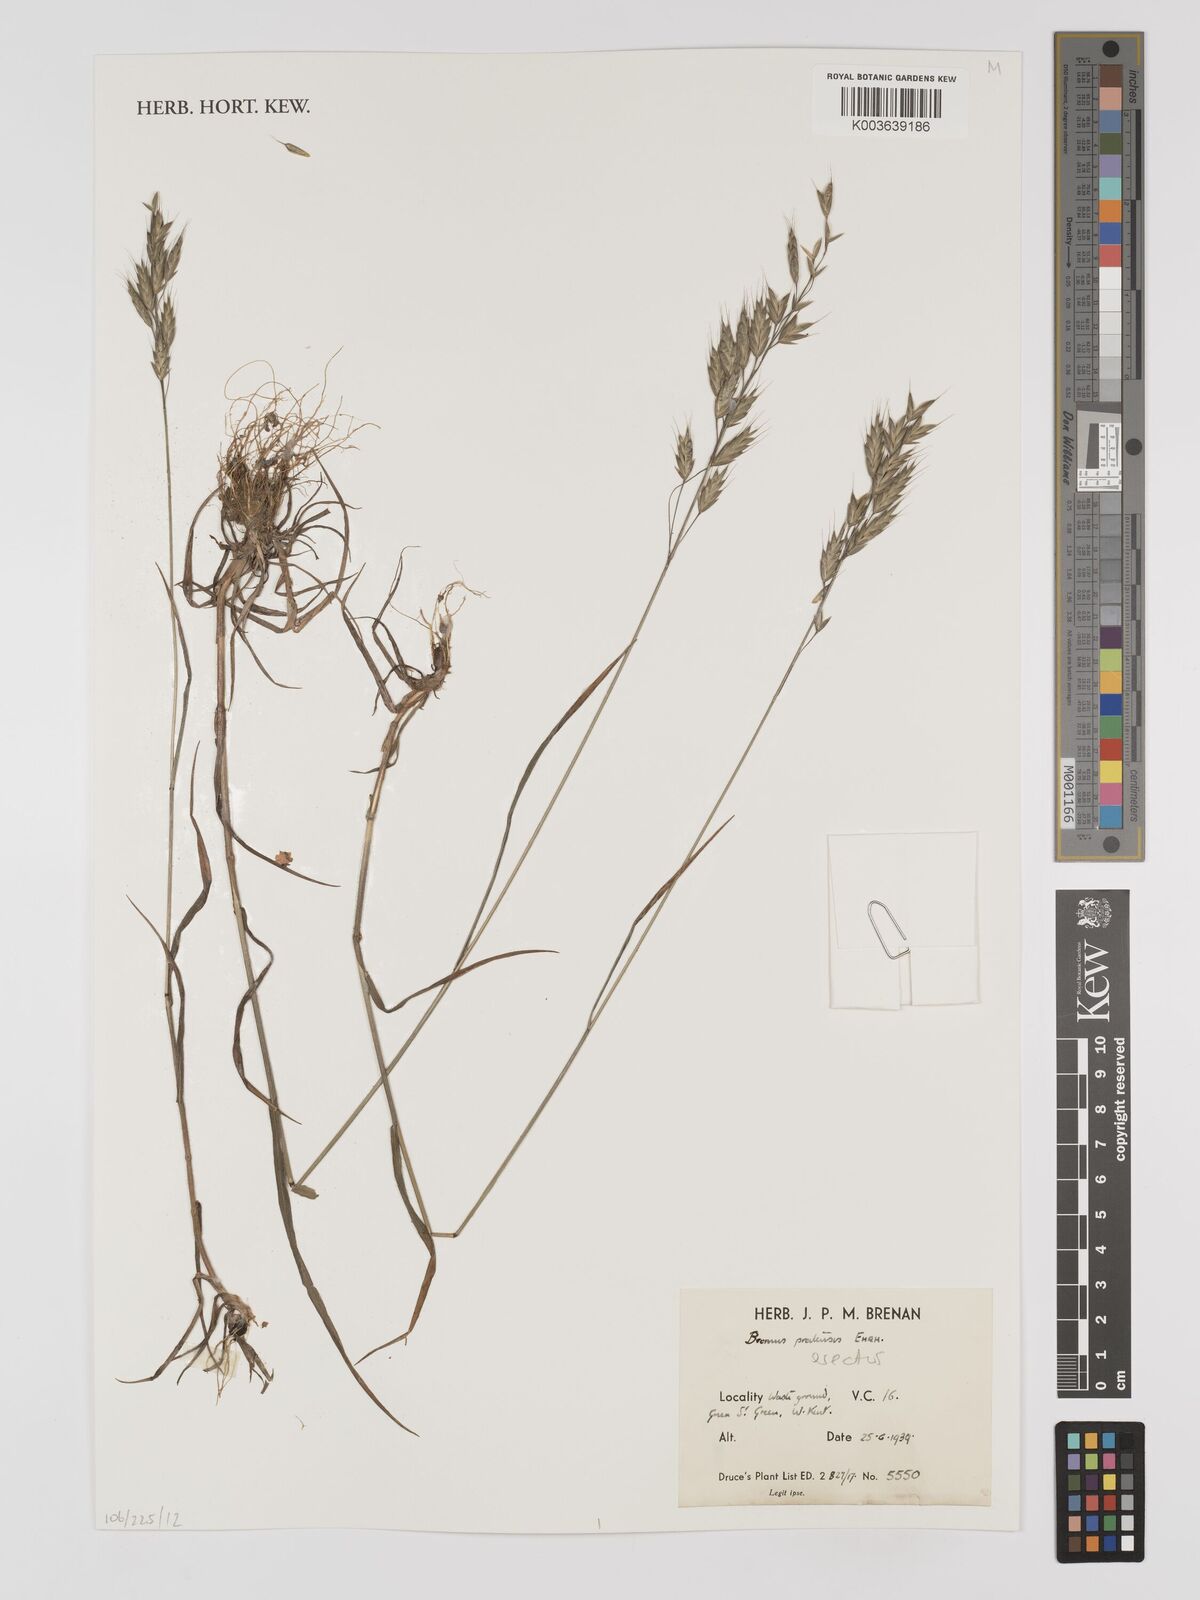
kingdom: Plantae
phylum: Tracheophyta
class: Liliopsida
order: Poales
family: Poaceae
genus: Bromus
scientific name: Bromus erectus
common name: Erect brome
